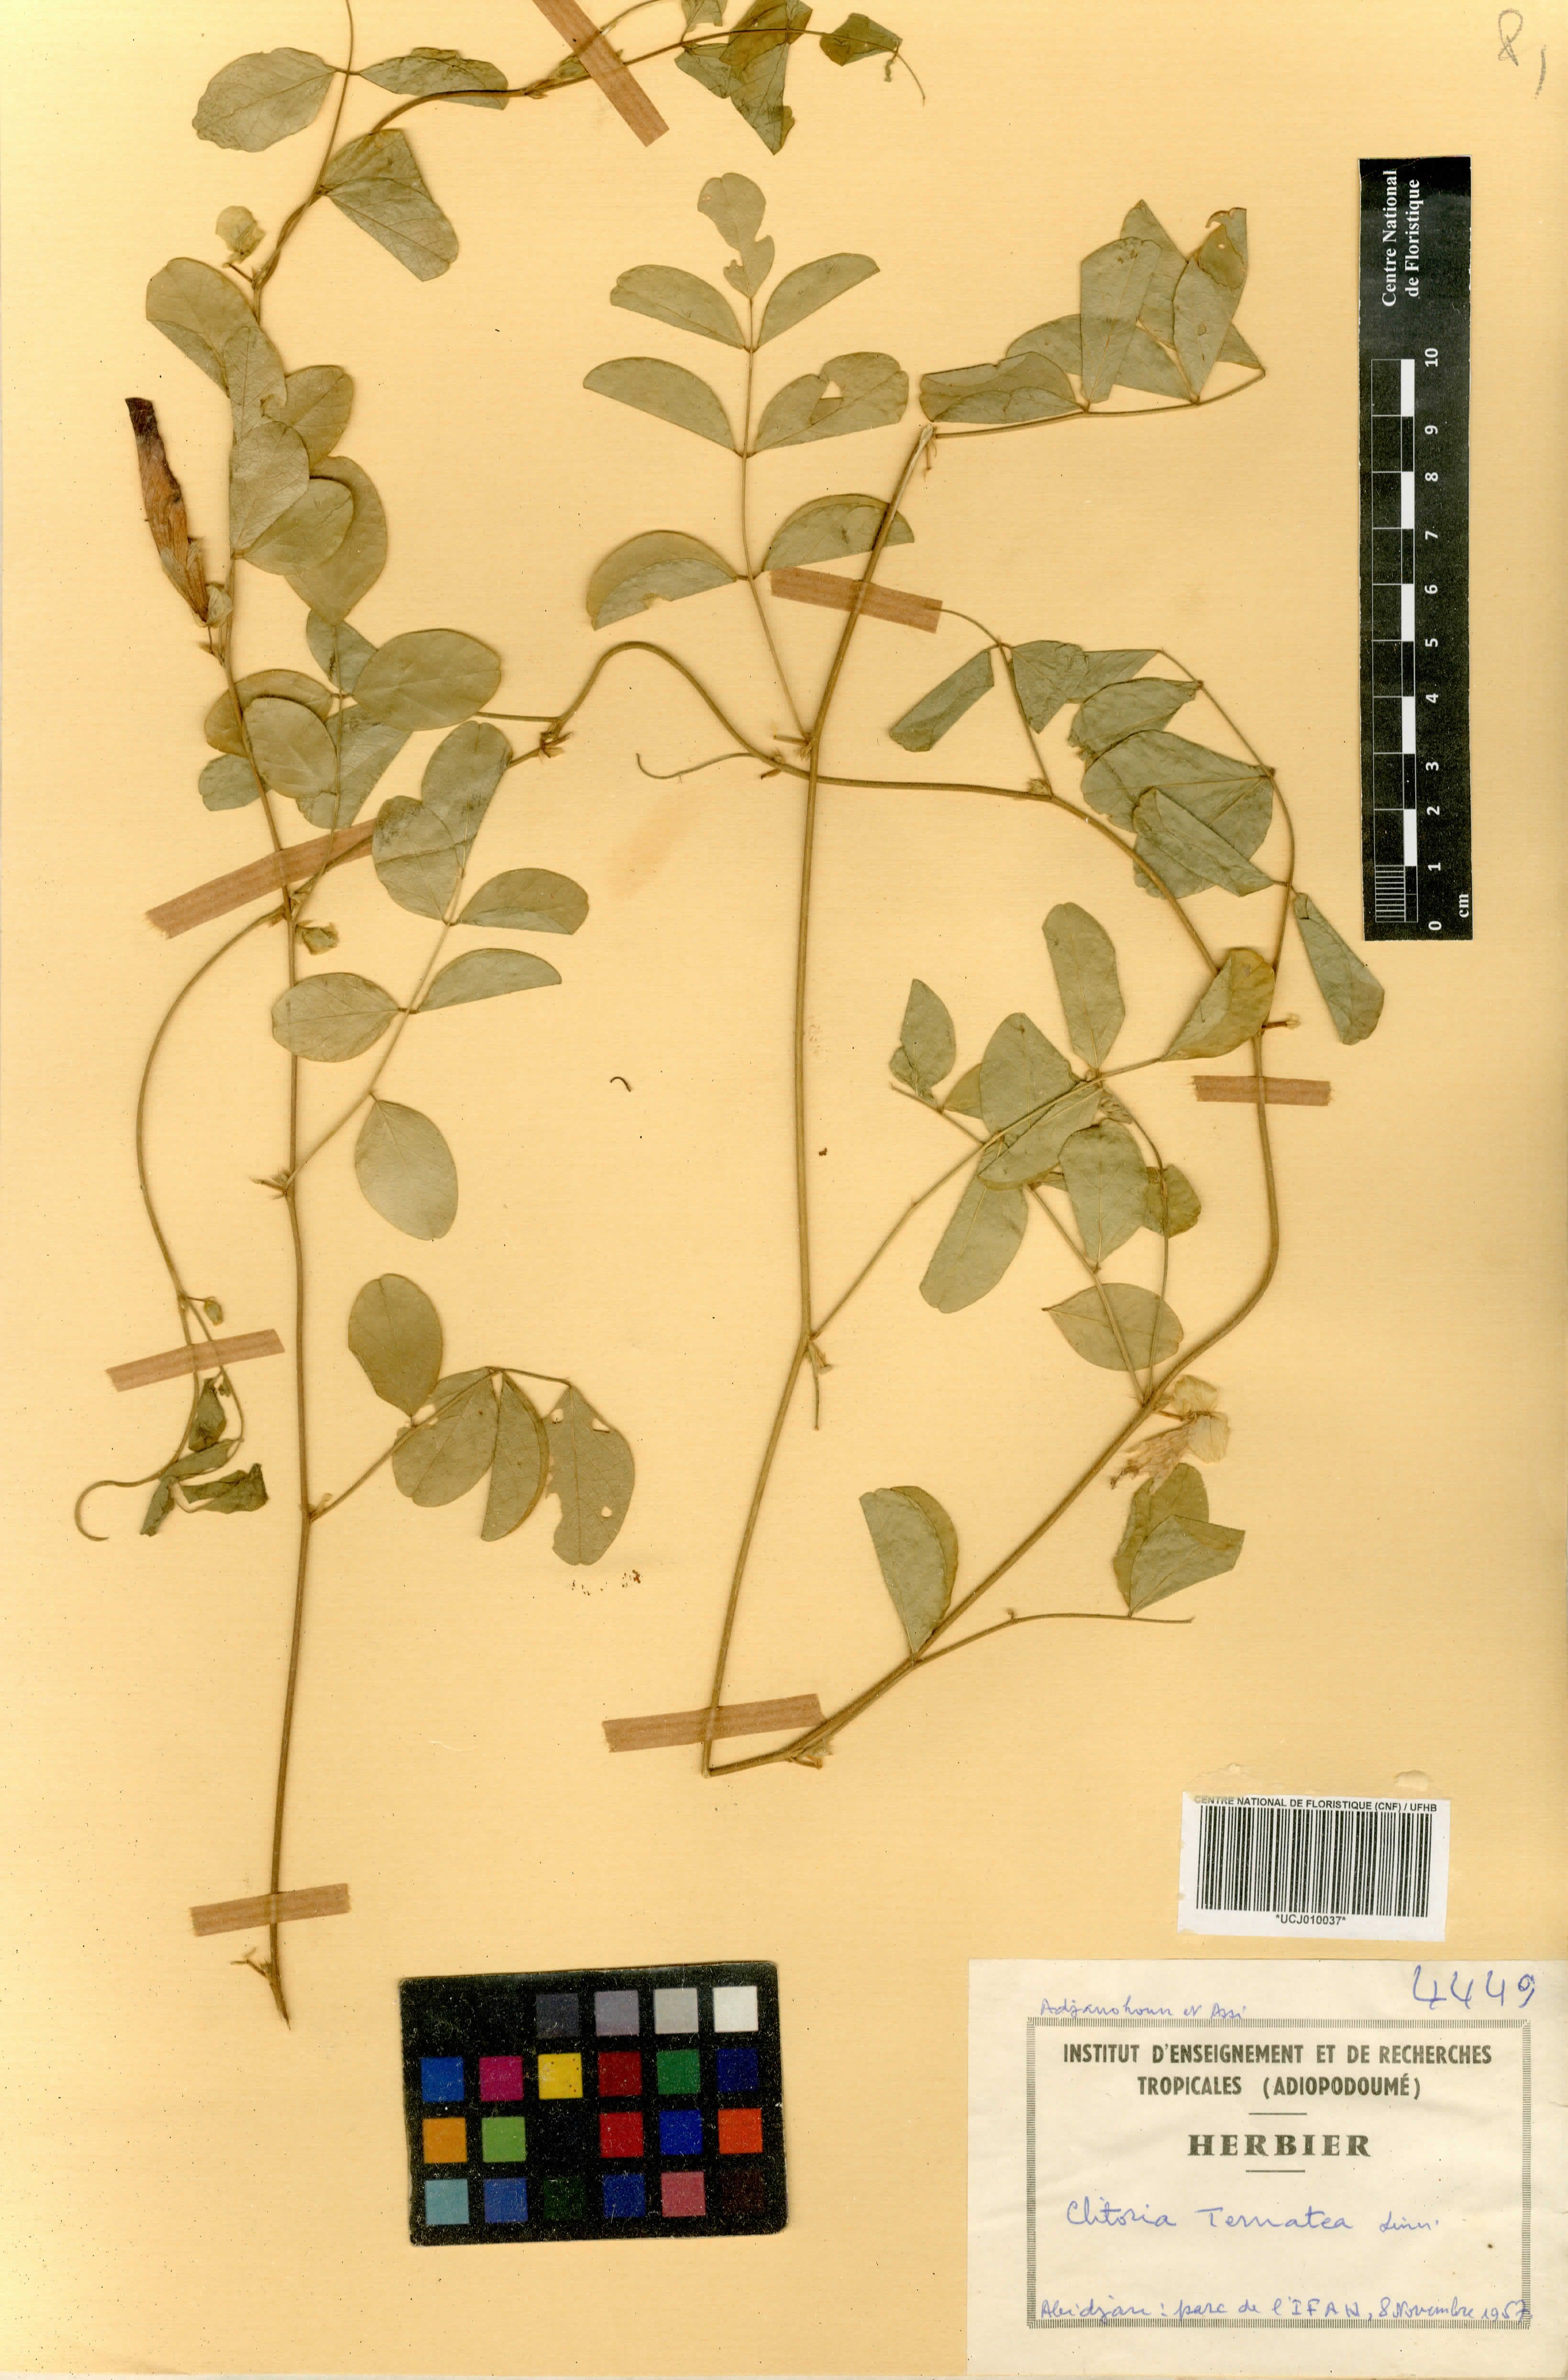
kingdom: Plantae
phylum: Tracheophyta
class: Magnoliopsida
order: Fabales
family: Fabaceae
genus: Clitoria
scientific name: Clitoria ternatea
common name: Asian pigeonwings
